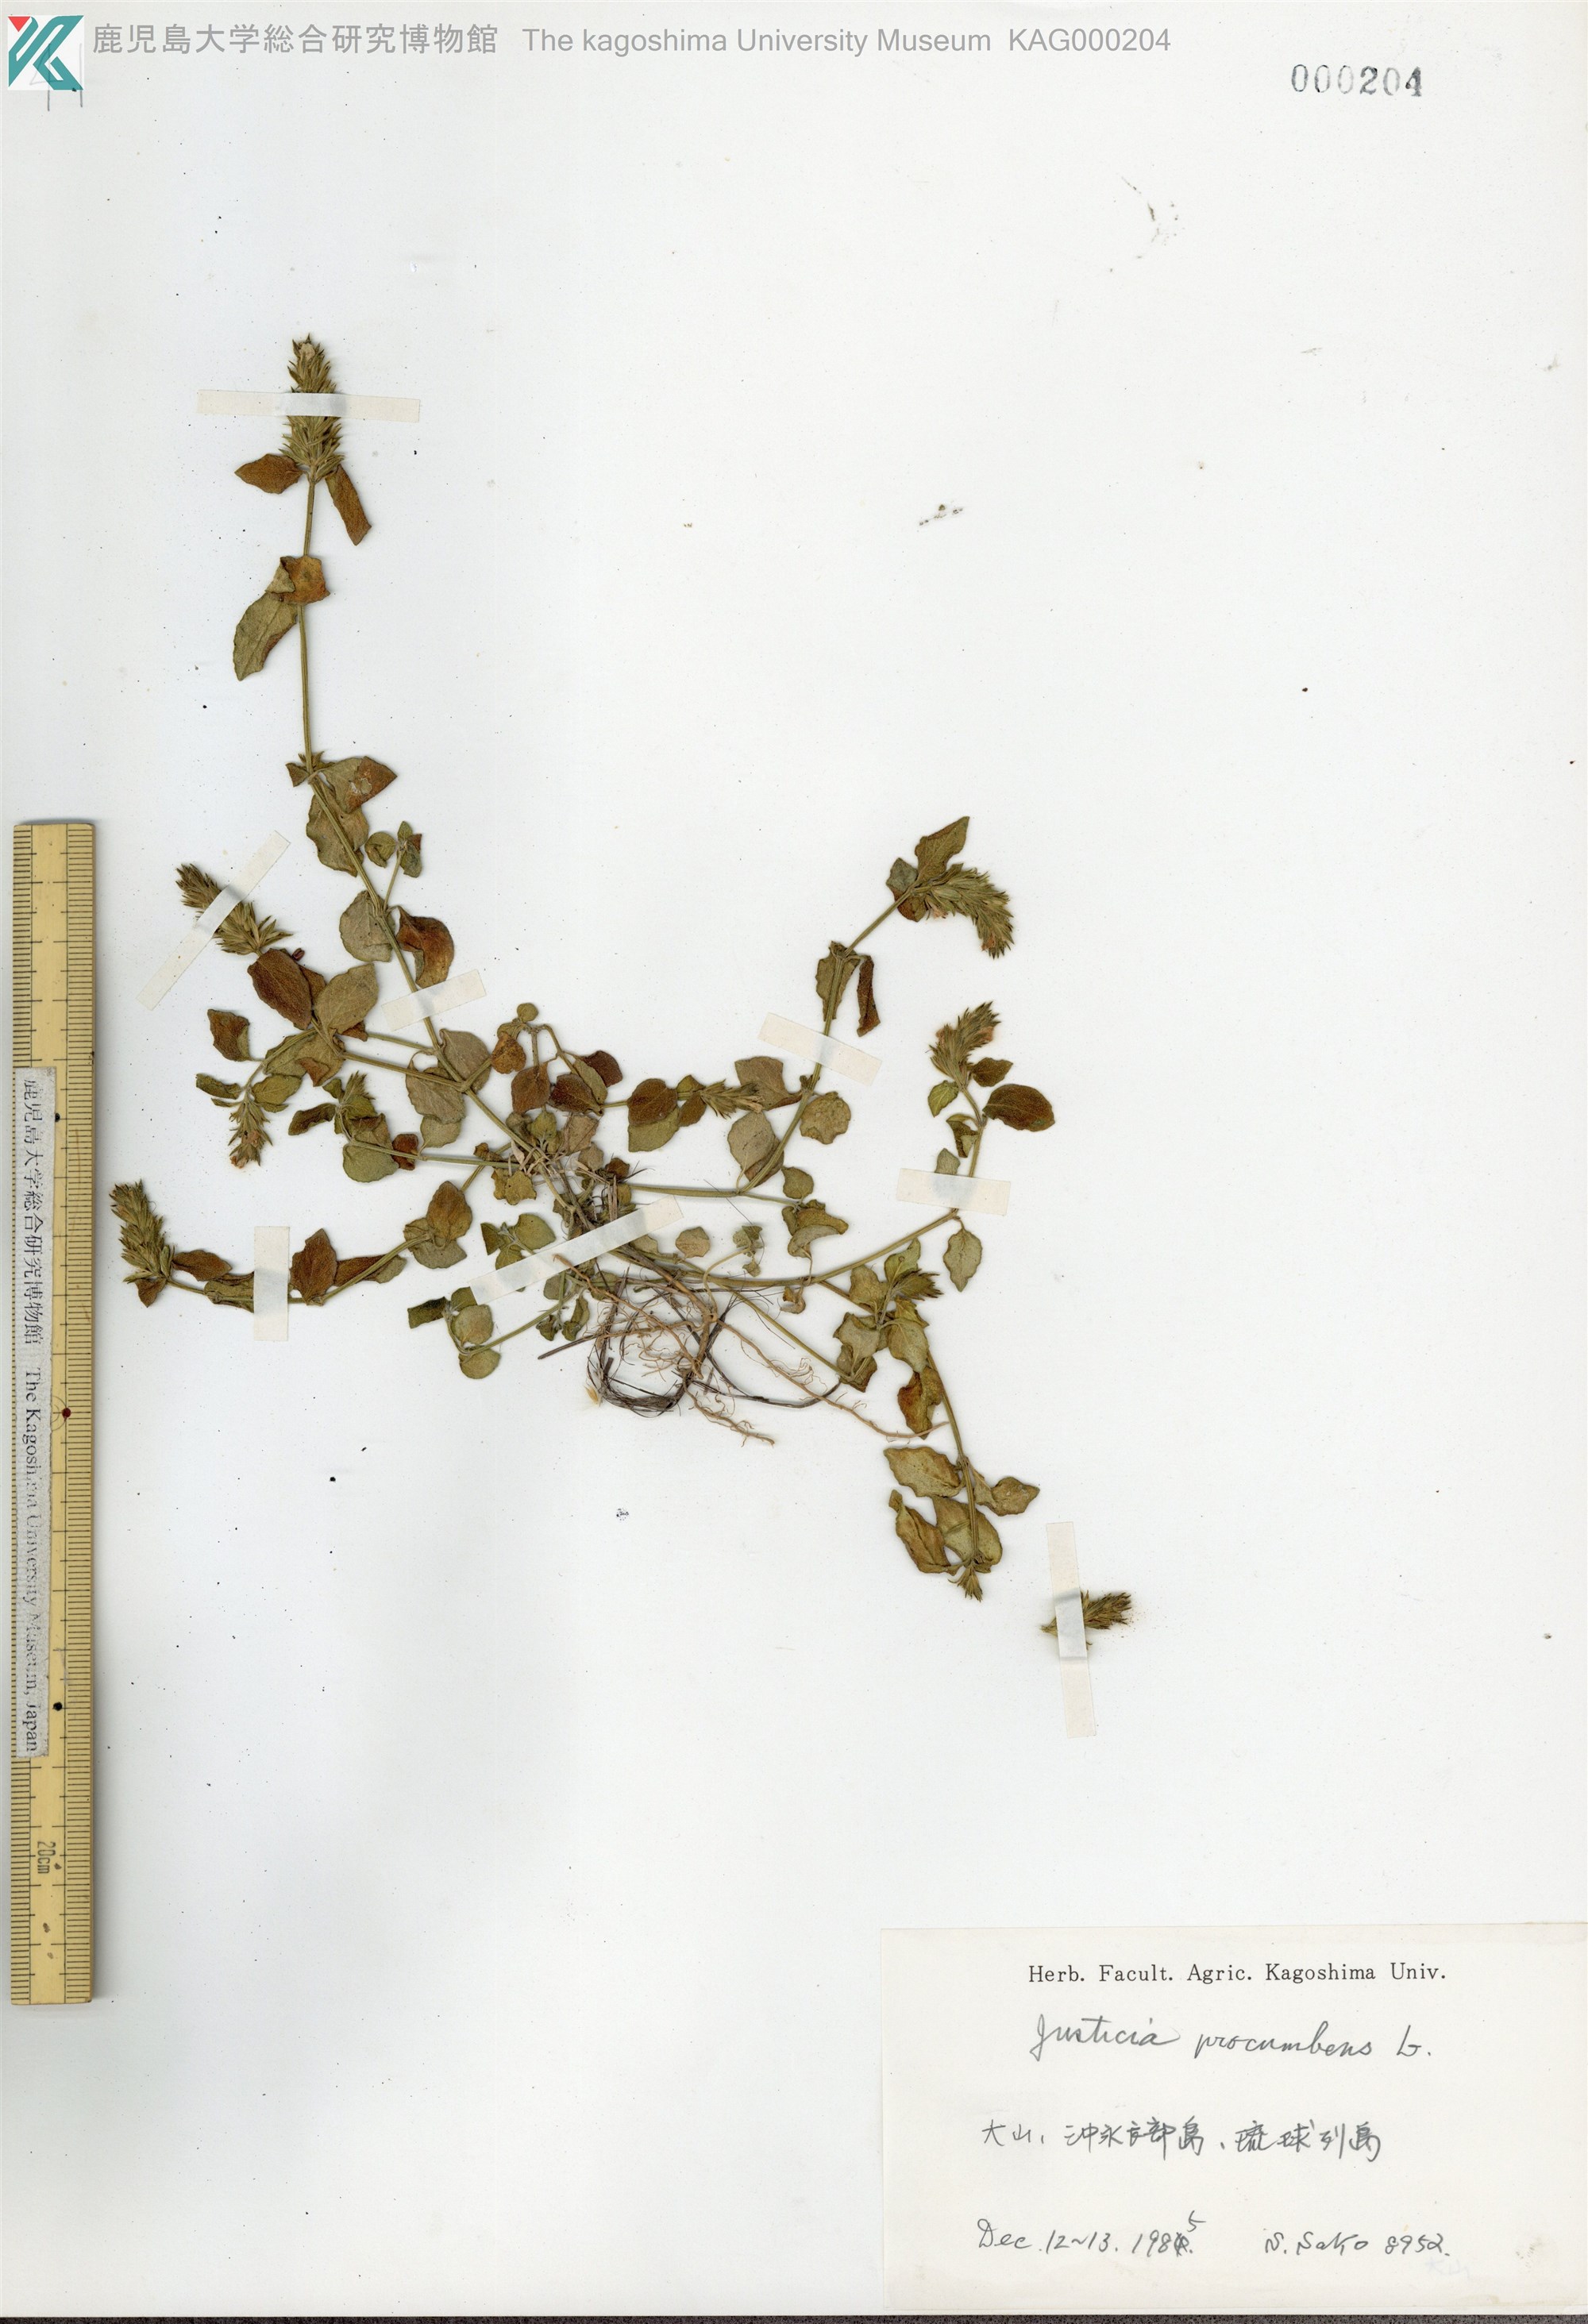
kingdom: Plantae
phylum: Tracheophyta
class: Magnoliopsida
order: Lamiales
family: Acanthaceae
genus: Rostellularia
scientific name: Rostellularia procumbens
